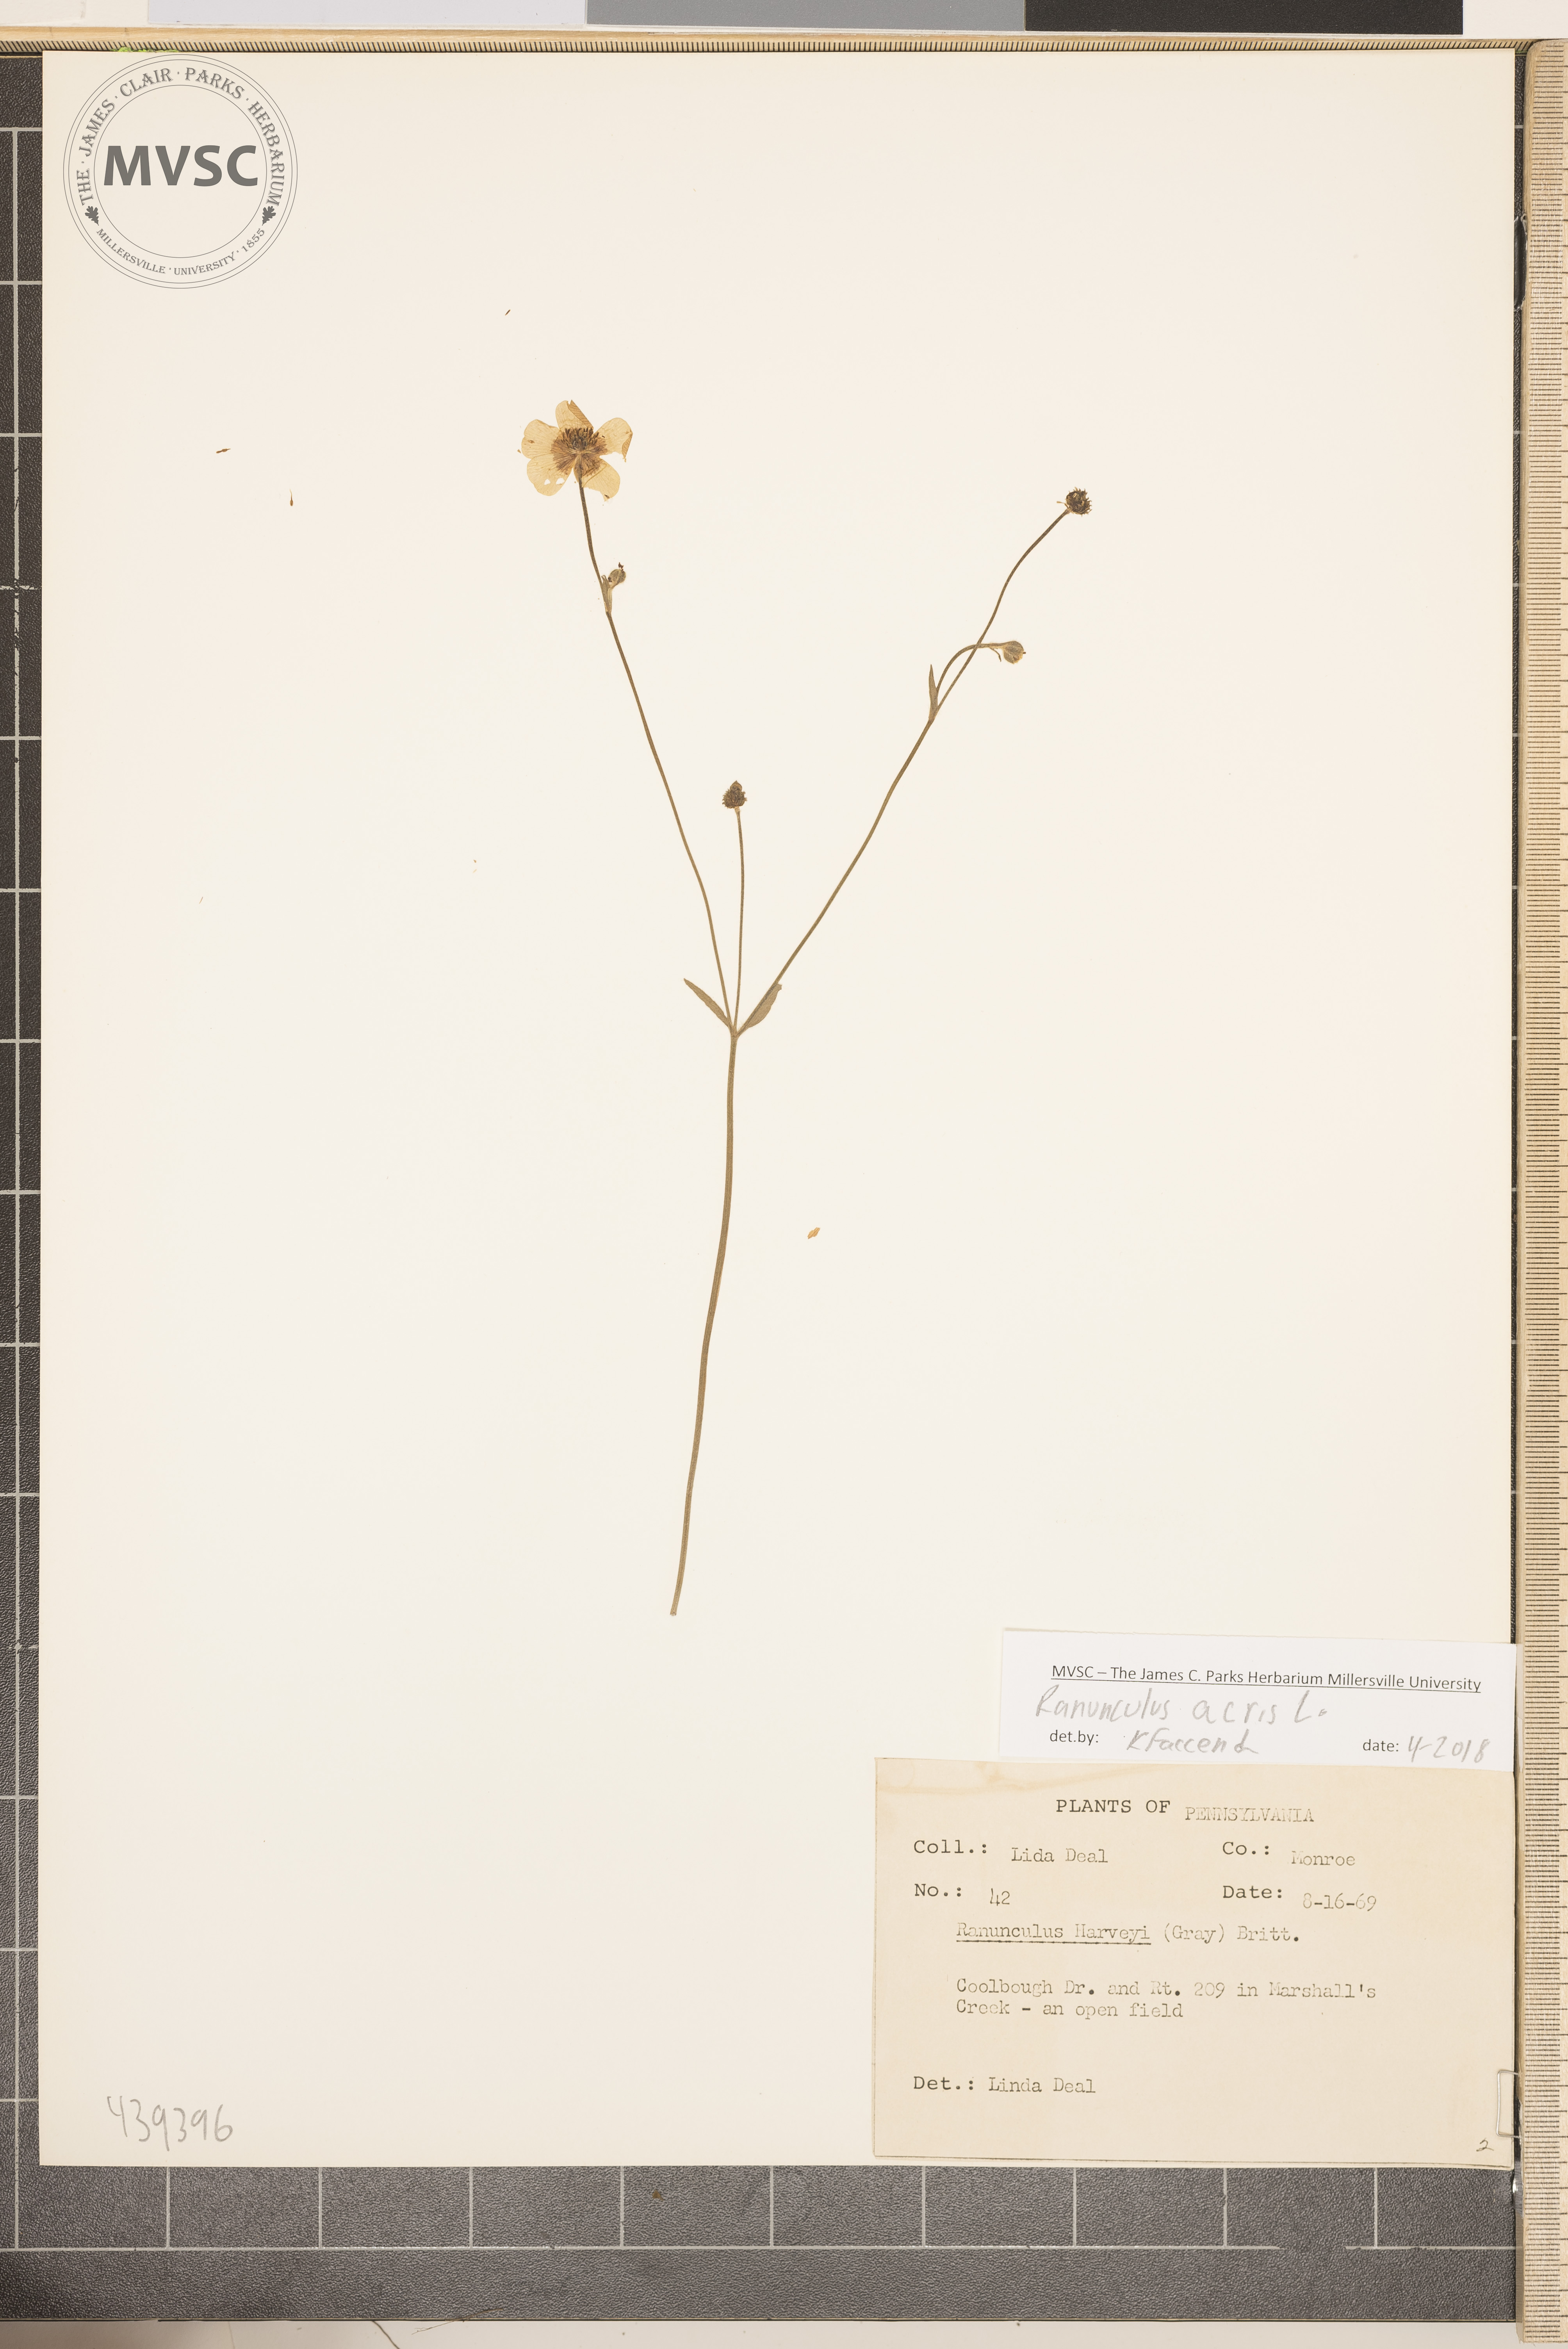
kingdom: Plantae
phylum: Tracheophyta
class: Magnoliopsida
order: Ranunculales
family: Ranunculaceae
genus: Ranunculus
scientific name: Ranunculus acris
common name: Meadow buttercup
